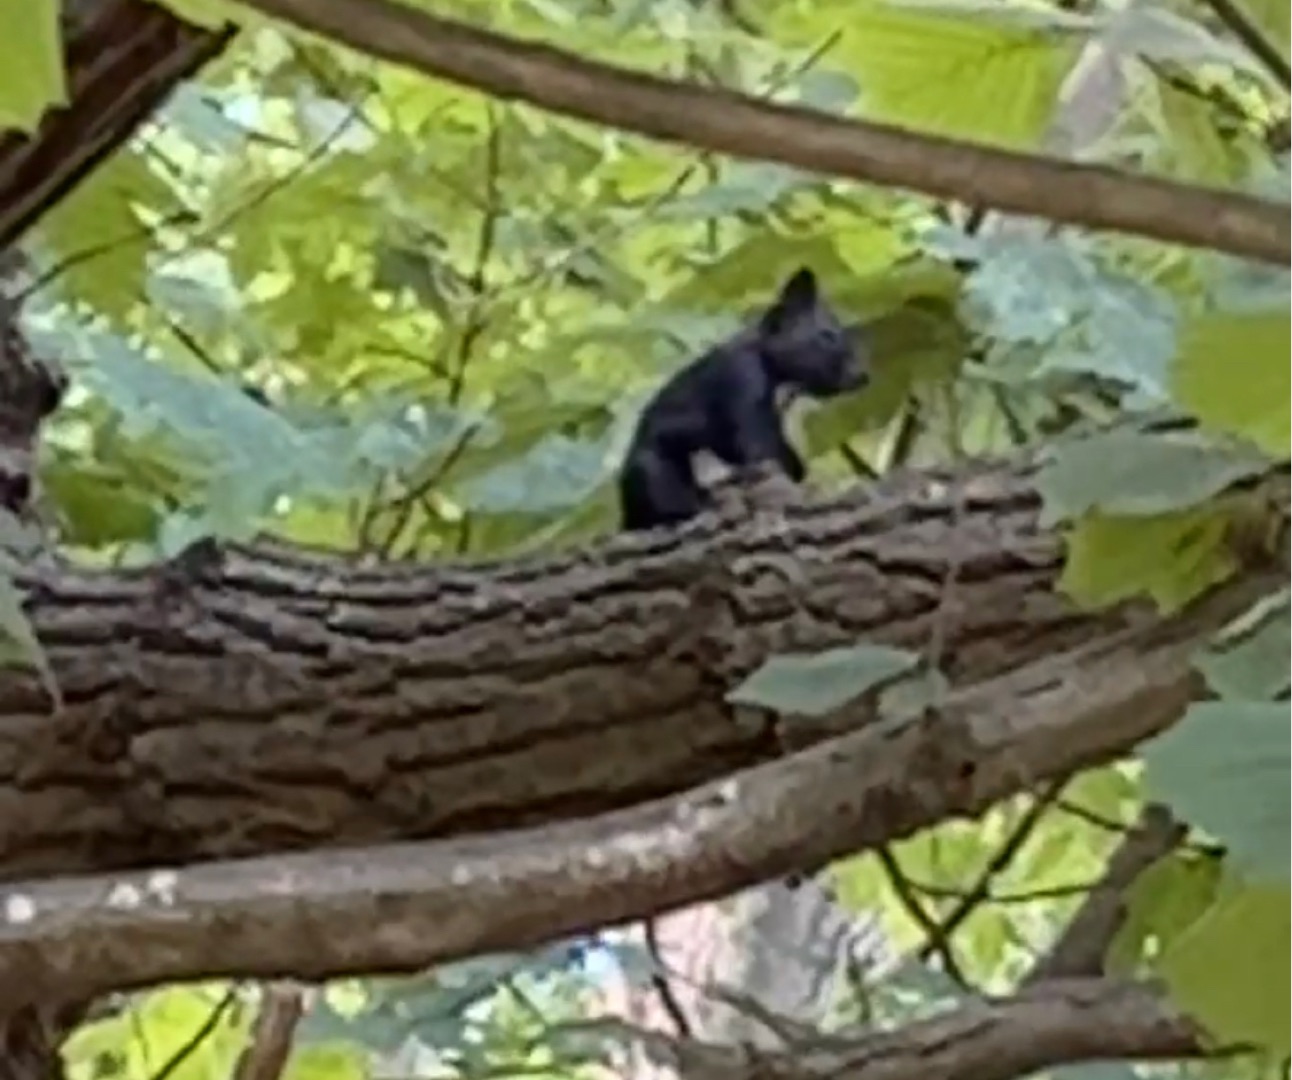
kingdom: Animalia
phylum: Chordata
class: Mammalia
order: Rodentia
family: Sciuridae
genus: Sciurus
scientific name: Sciurus vulgaris
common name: Egern
